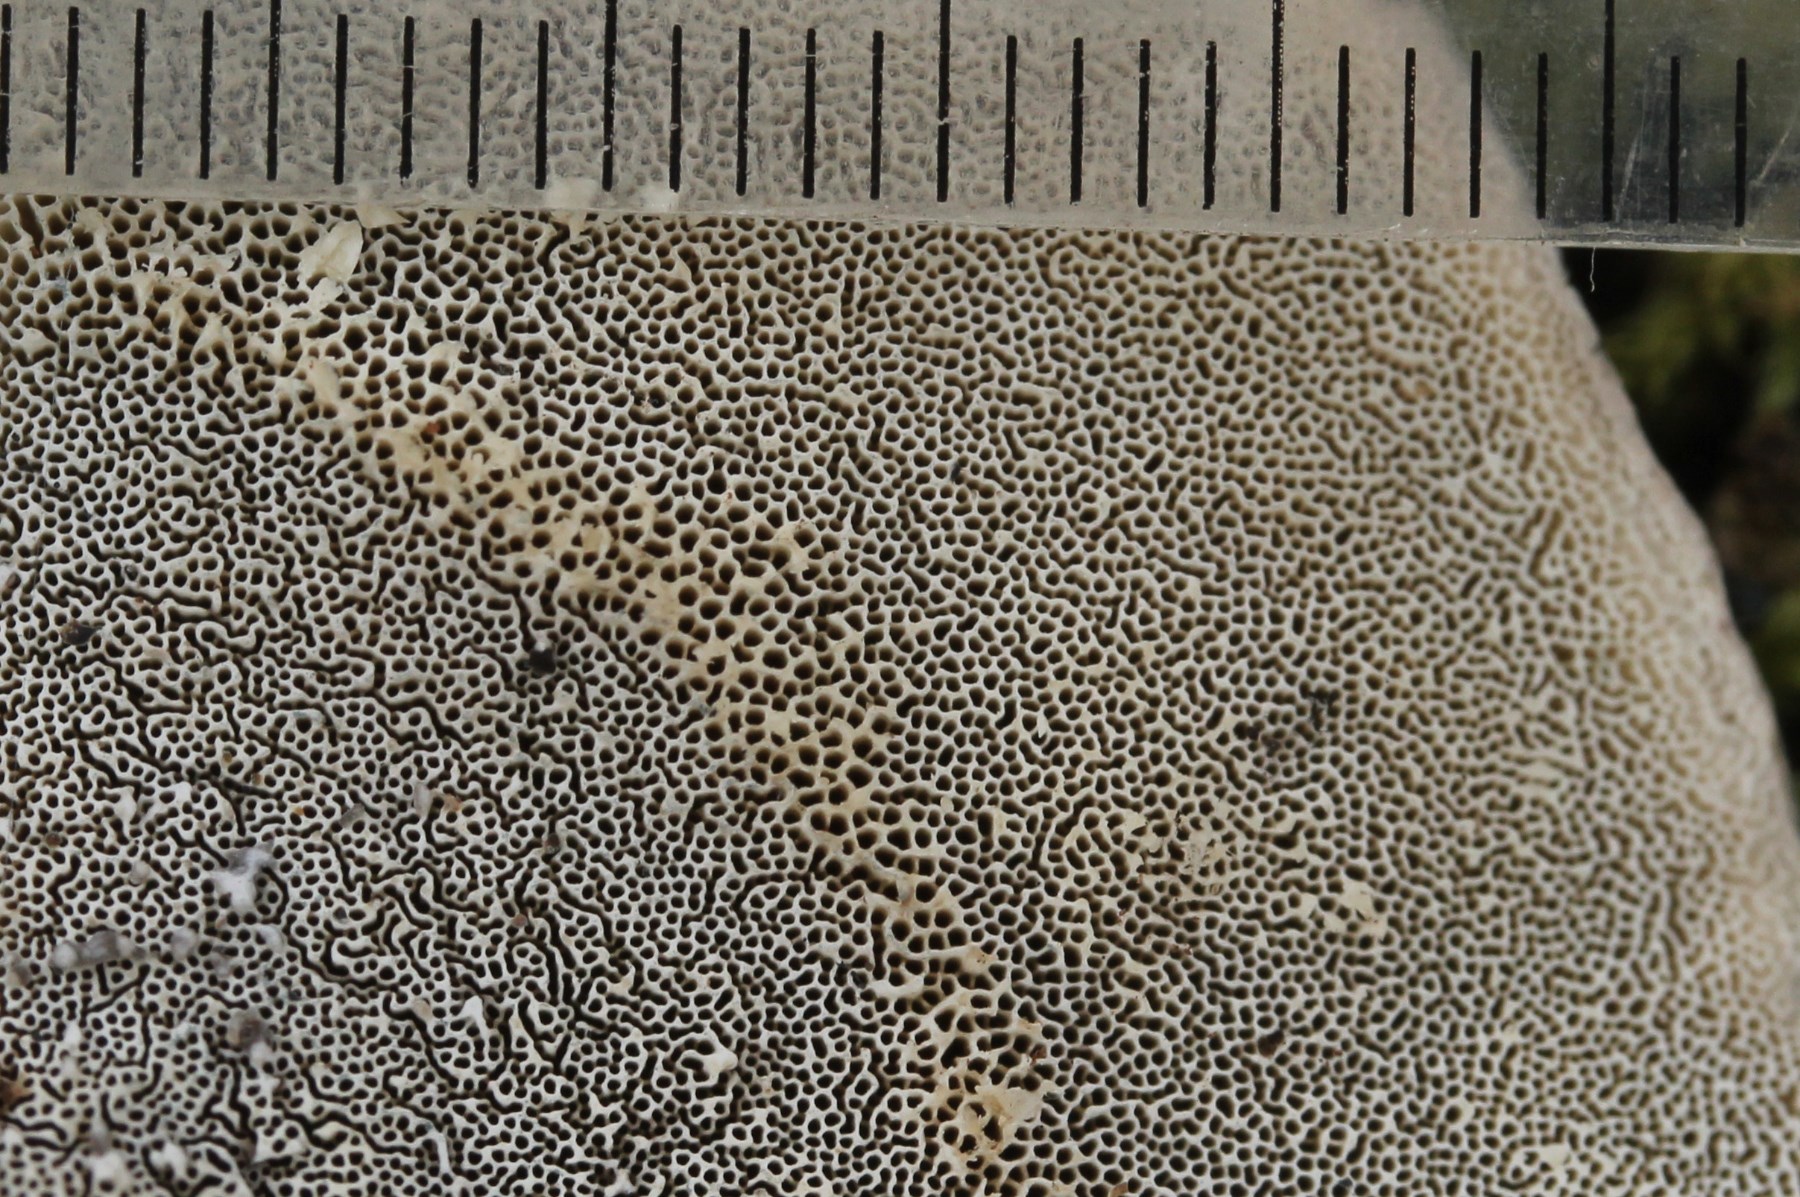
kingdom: Fungi
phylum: Basidiomycota
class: Agaricomycetes
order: Polyporales
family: Polyporaceae
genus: Cyanosporus
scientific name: Cyanosporus alni
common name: blegblå kødporesvamp
